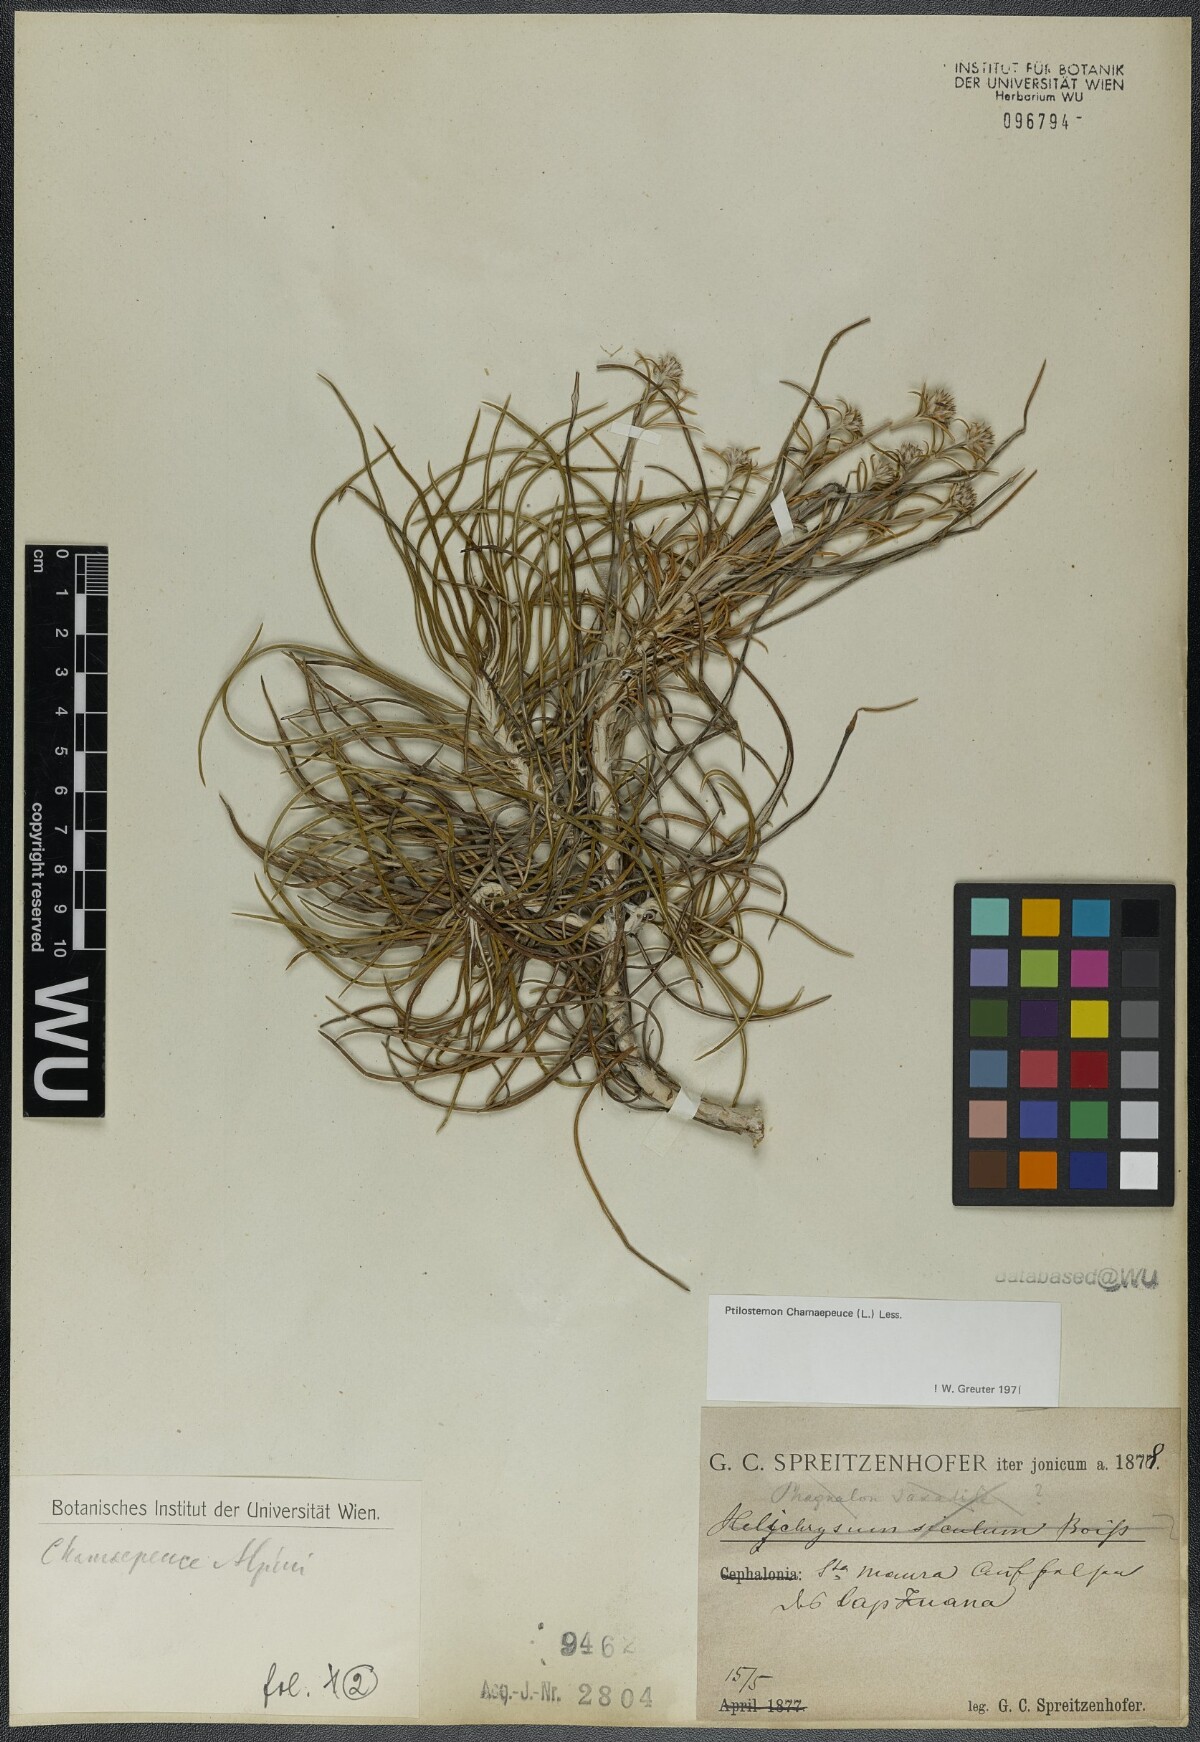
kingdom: Plantae
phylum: Tracheophyta
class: Magnoliopsida
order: Asterales
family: Asteraceae
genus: Ptilostemon
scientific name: Ptilostemon chamaepeuce
